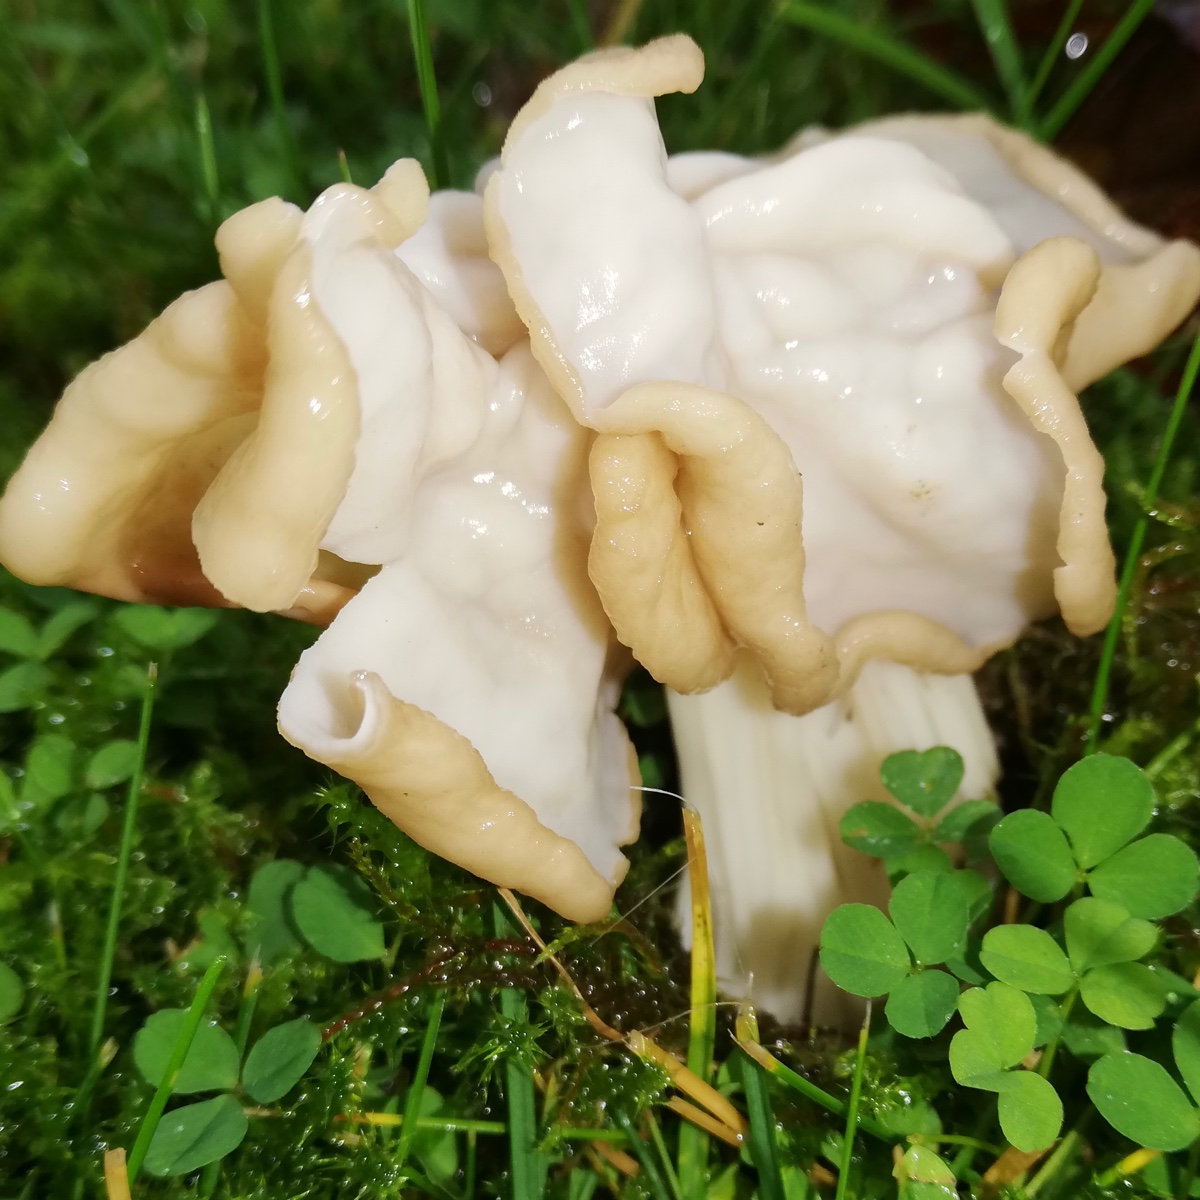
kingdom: Fungi
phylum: Ascomycota
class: Pezizomycetes
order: Pezizales
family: Helvellaceae
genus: Helvella
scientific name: Helvella crispa
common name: kruset foldhat
